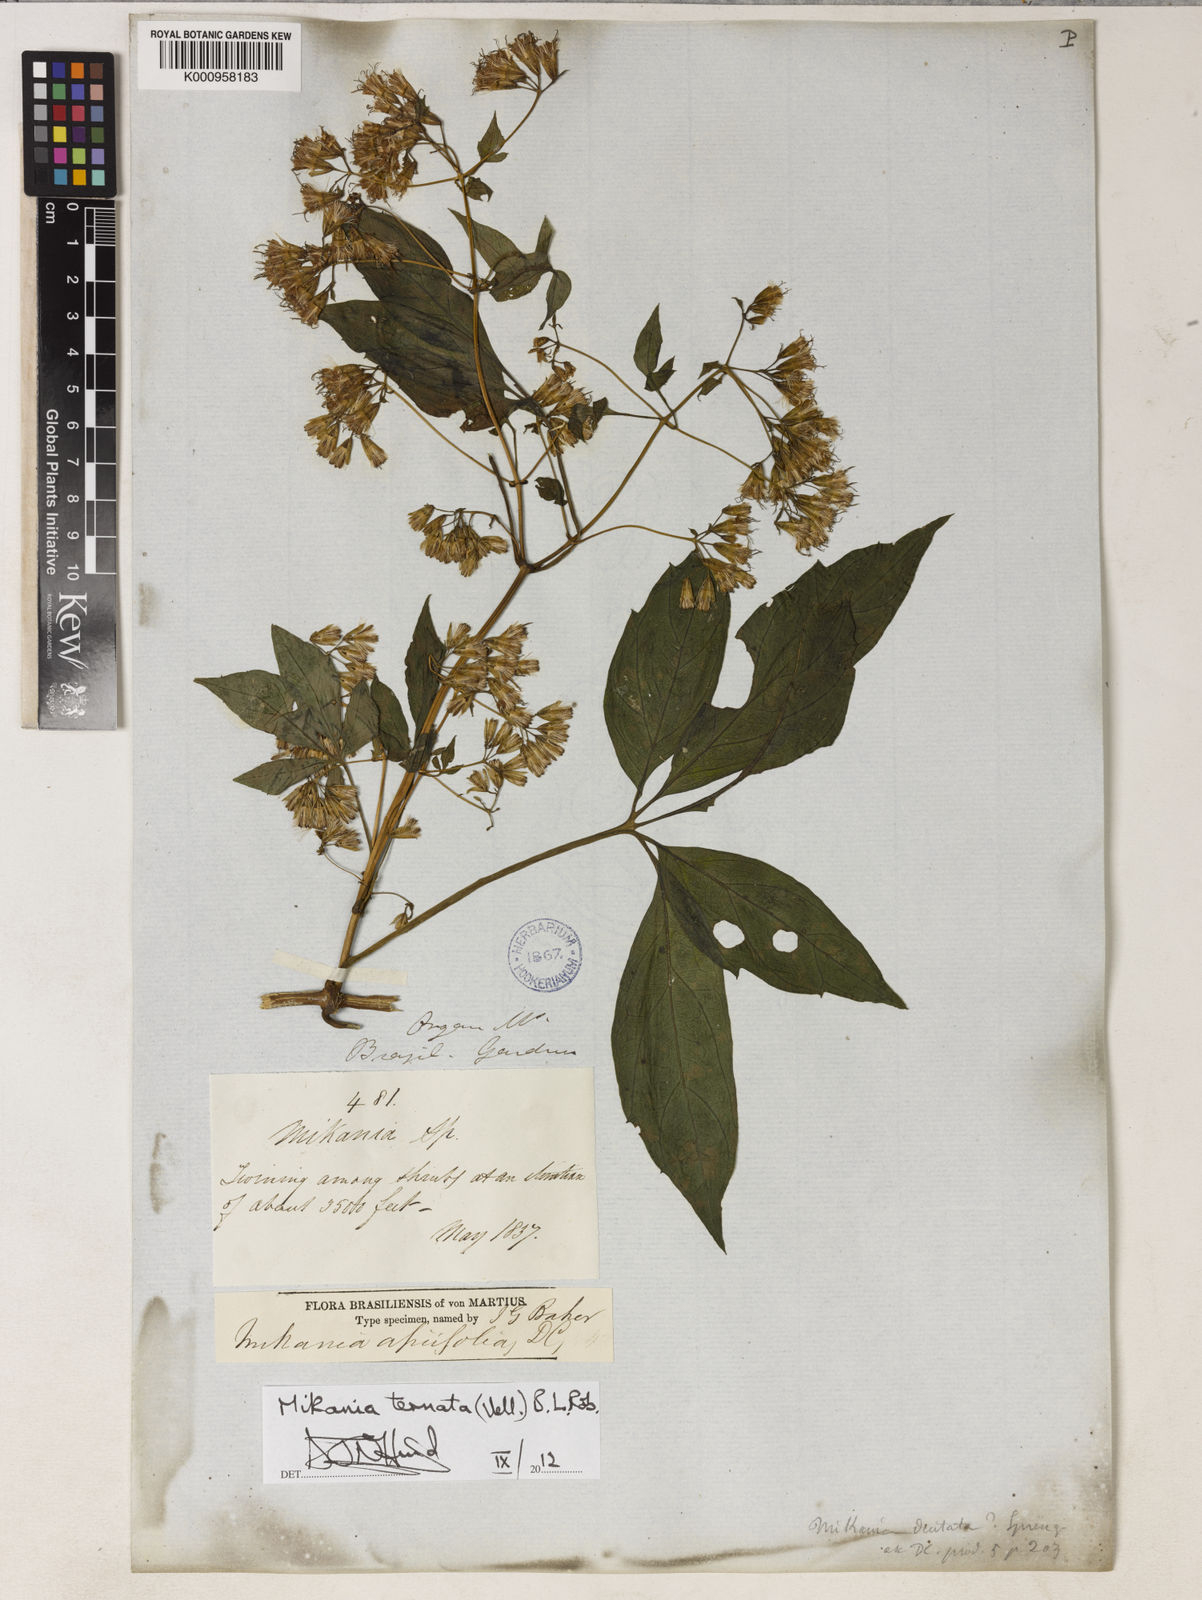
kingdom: Plantae
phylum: Tracheophyta
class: Magnoliopsida
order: Asterales
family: Asteraceae
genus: Mikania
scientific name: Mikania ternata
